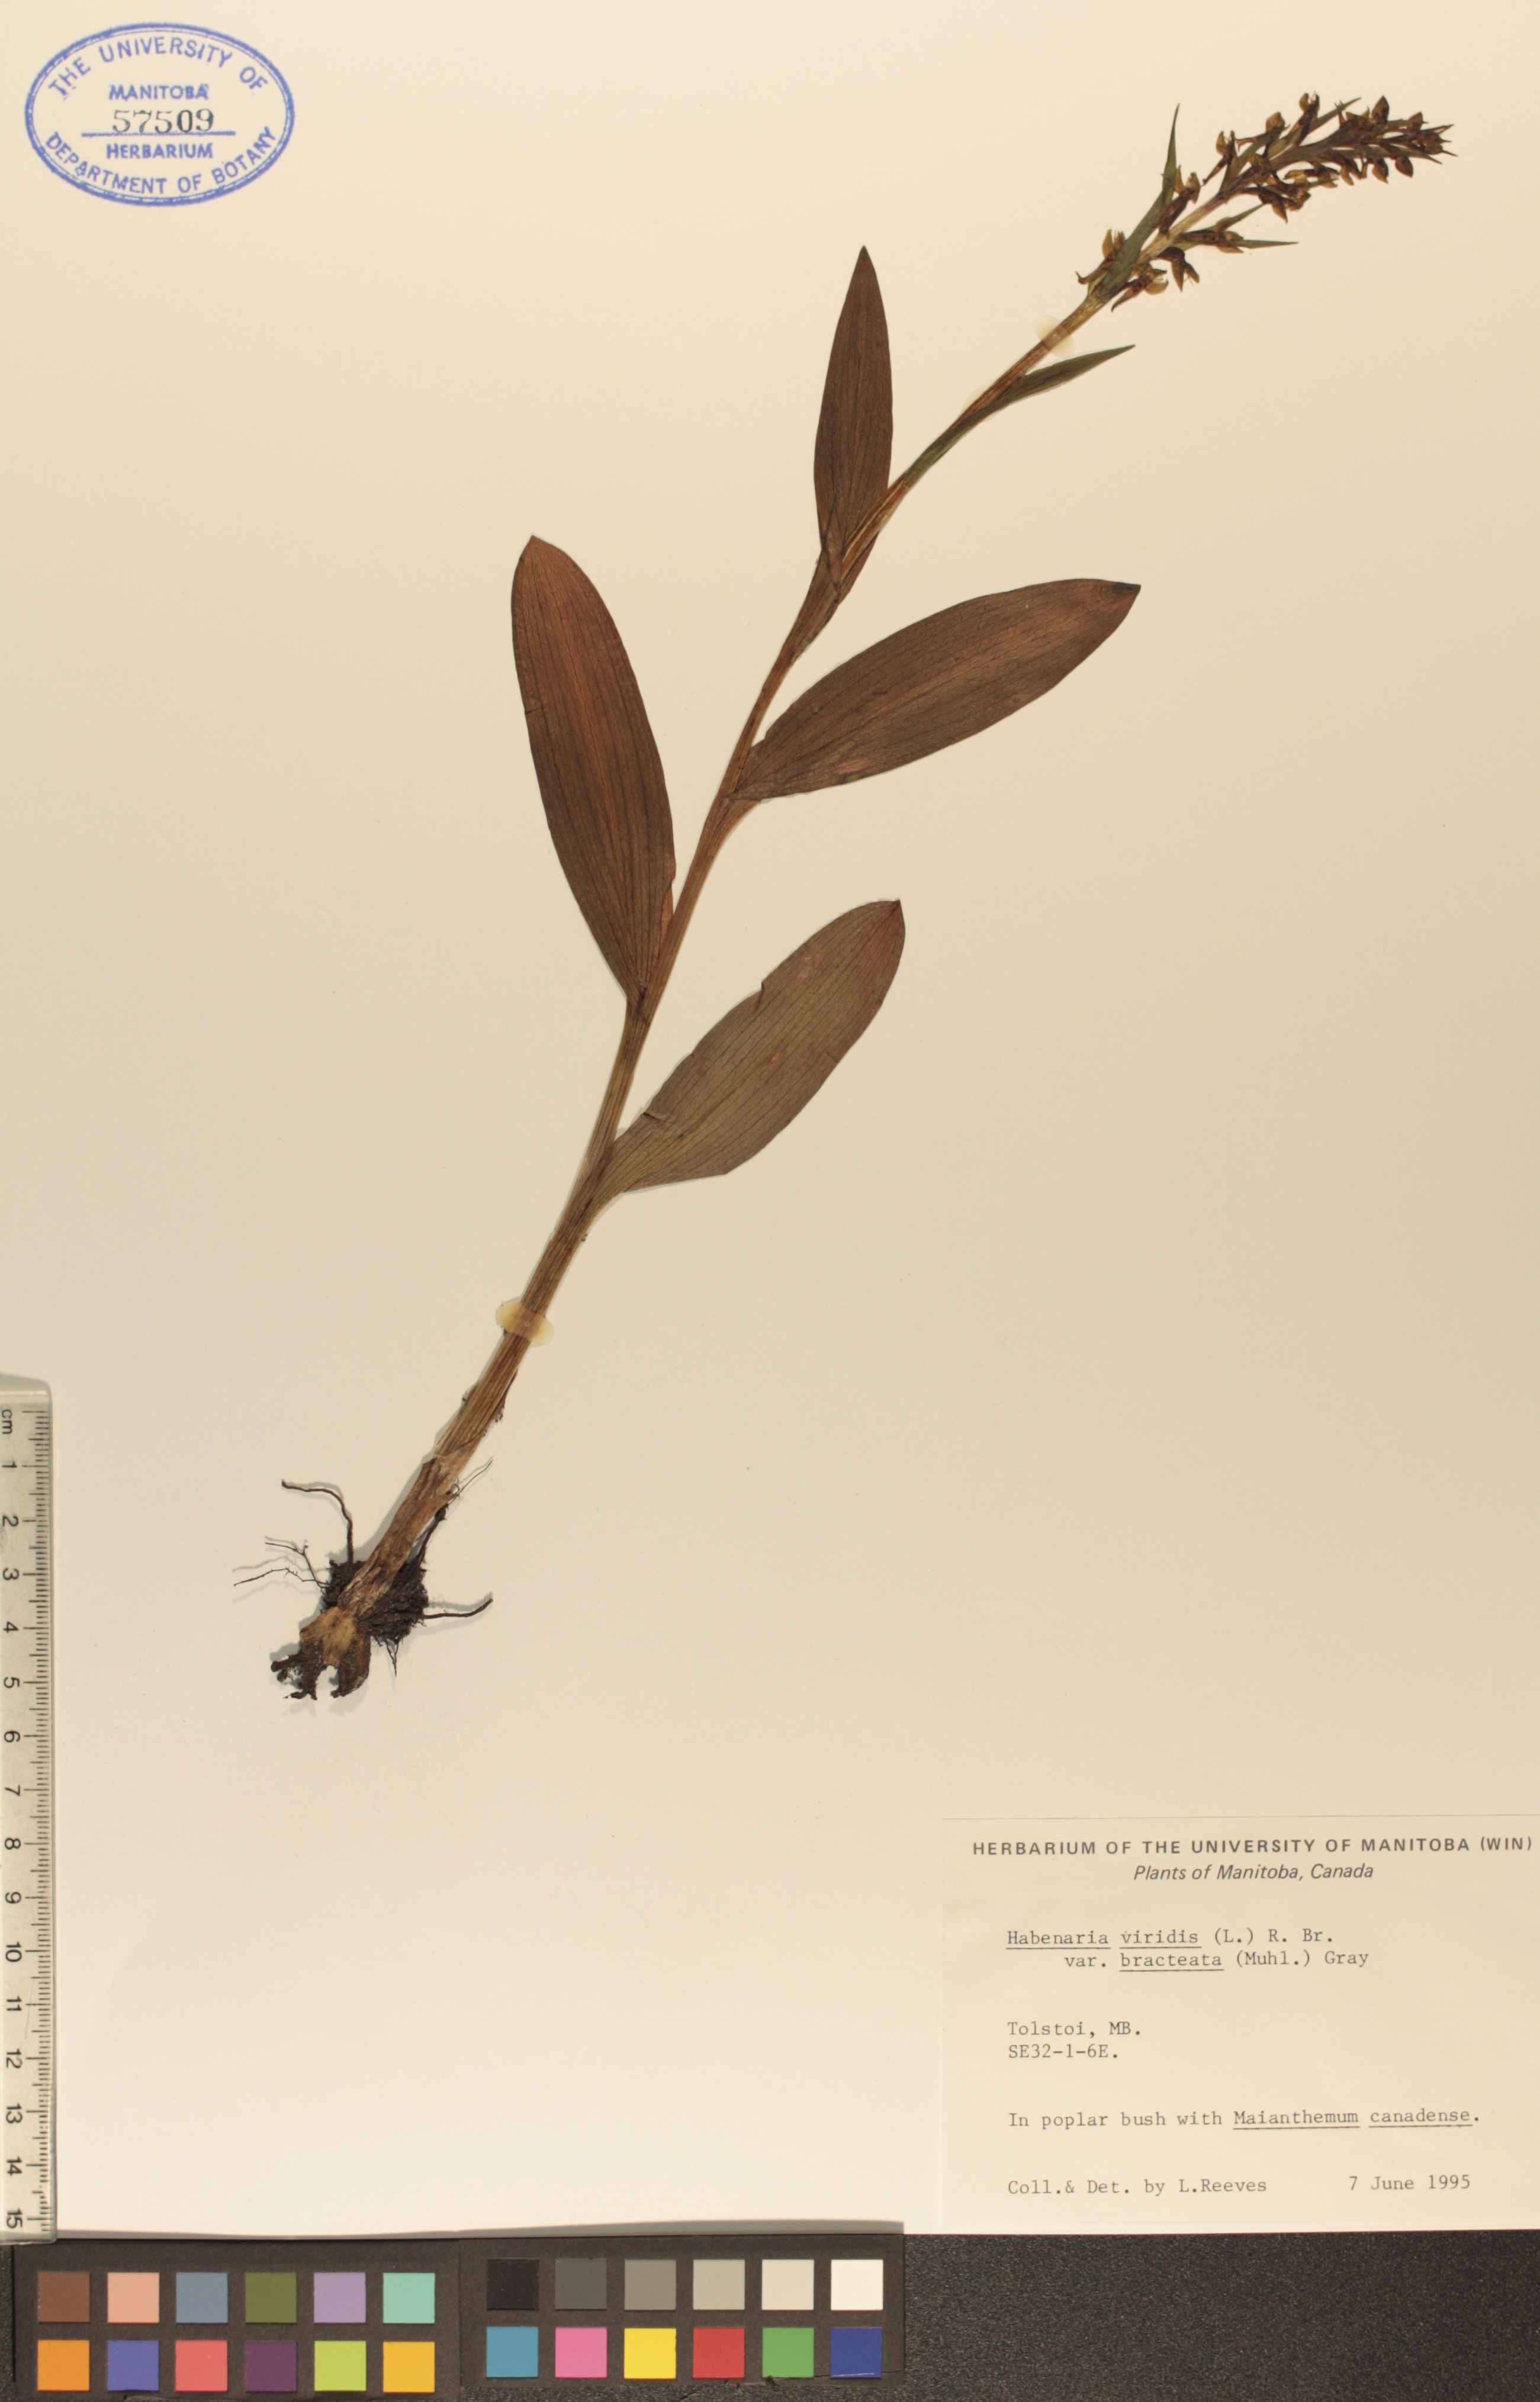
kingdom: Plantae
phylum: Tracheophyta
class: Liliopsida
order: Asparagales
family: Orchidaceae
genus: Dactylorhiza
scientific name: Dactylorhiza viridis
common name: Longbract frog orchid
